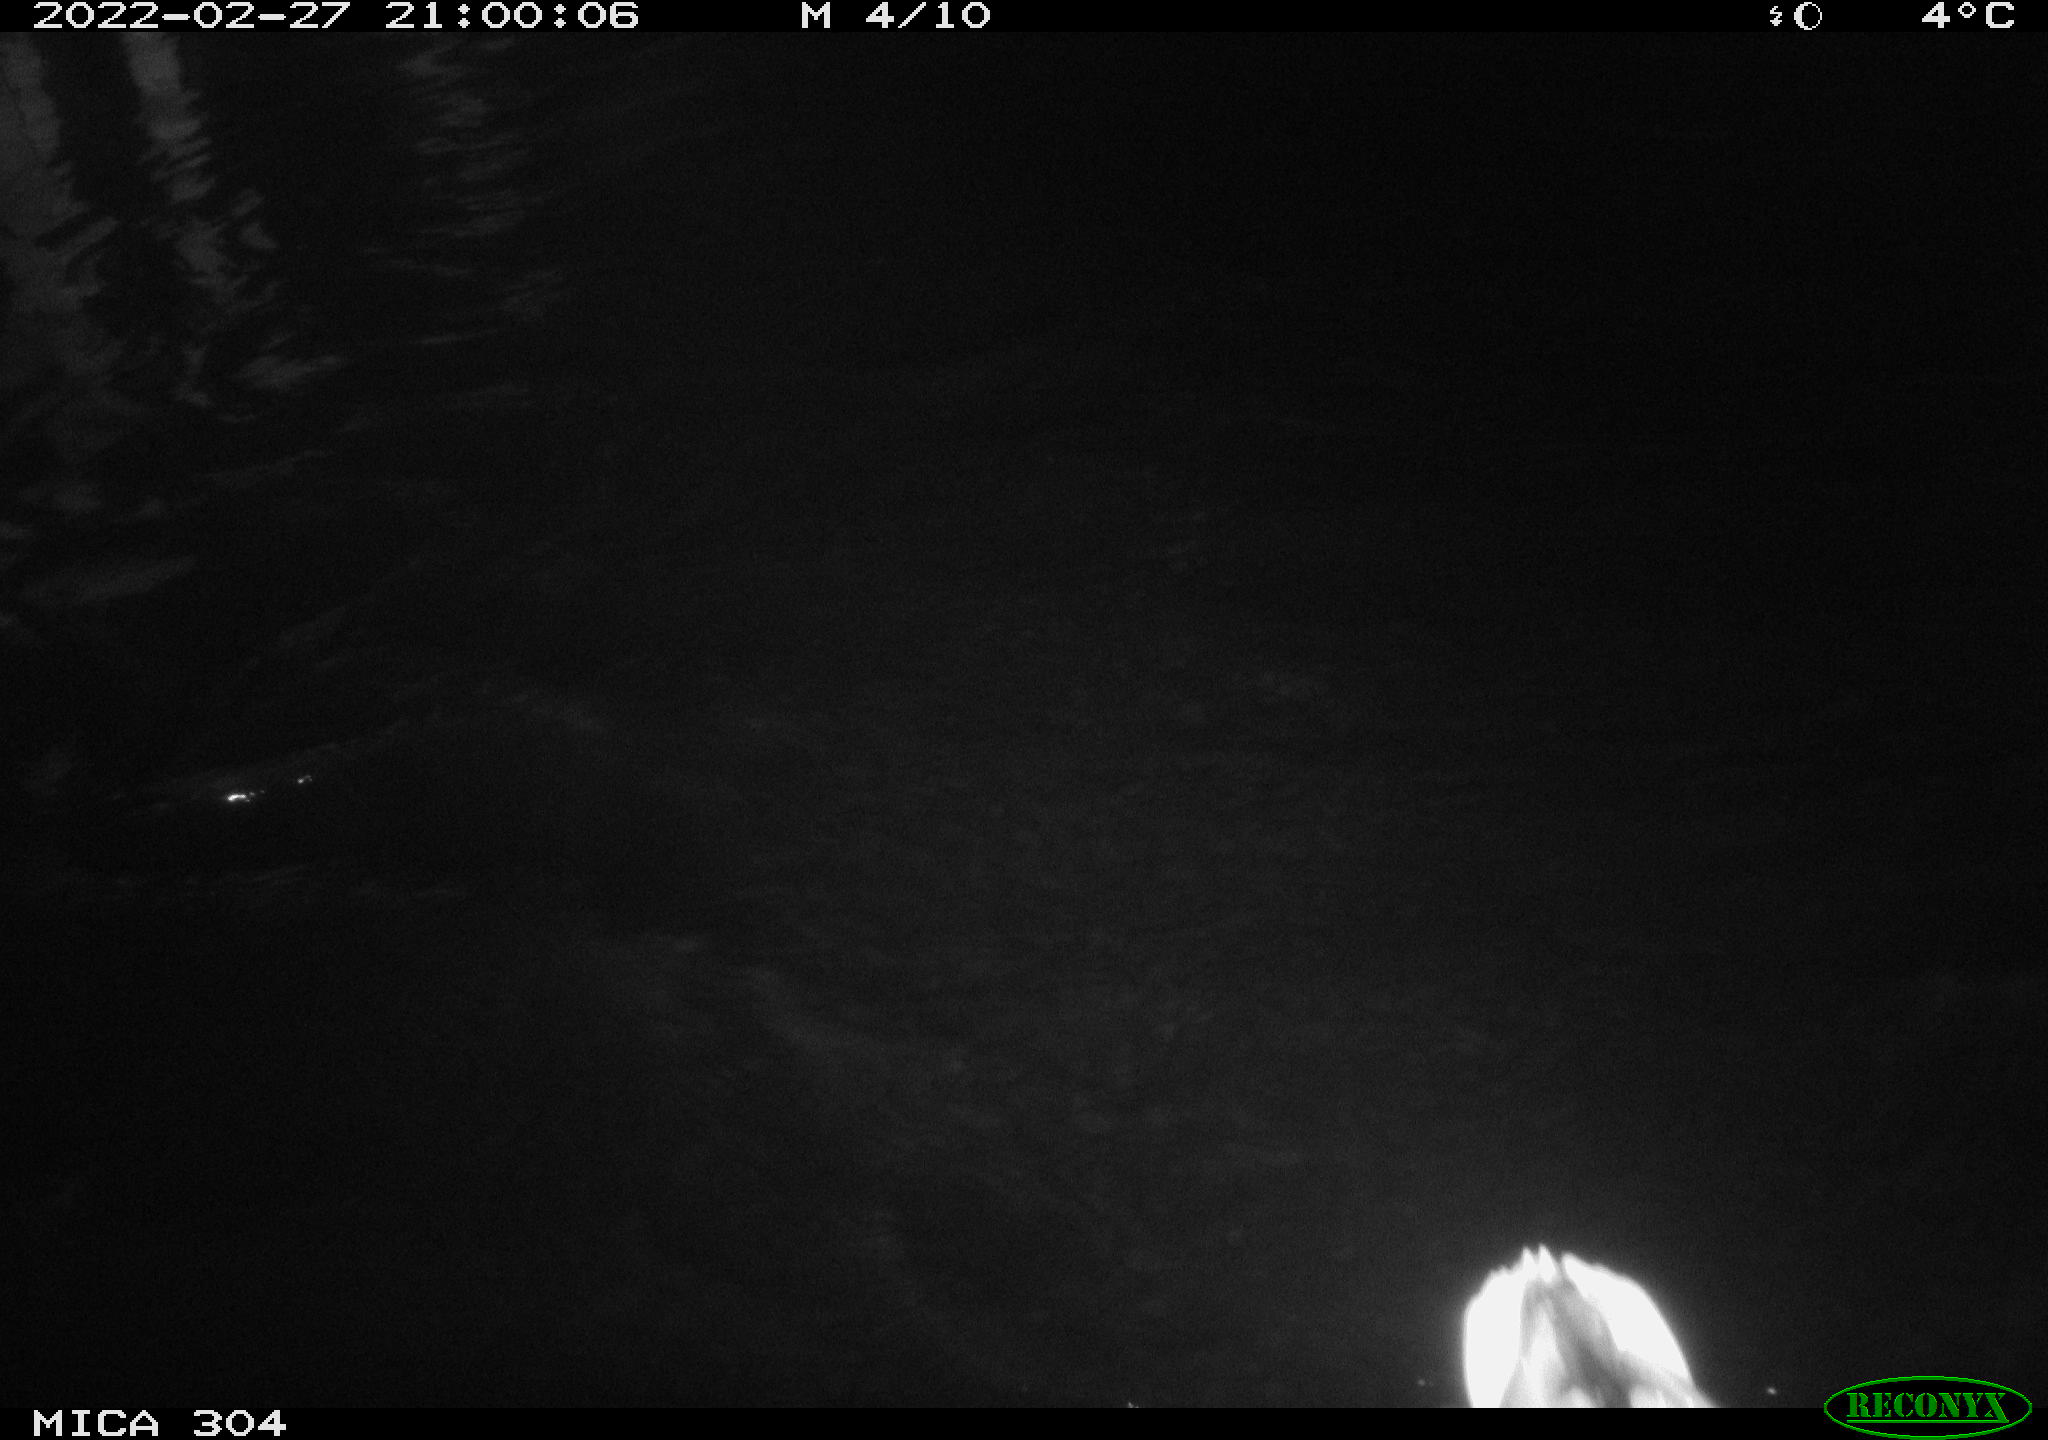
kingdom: Animalia
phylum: Chordata
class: Aves
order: Anseriformes
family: Anatidae
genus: Anas
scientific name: Anas platyrhynchos
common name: Mallard
